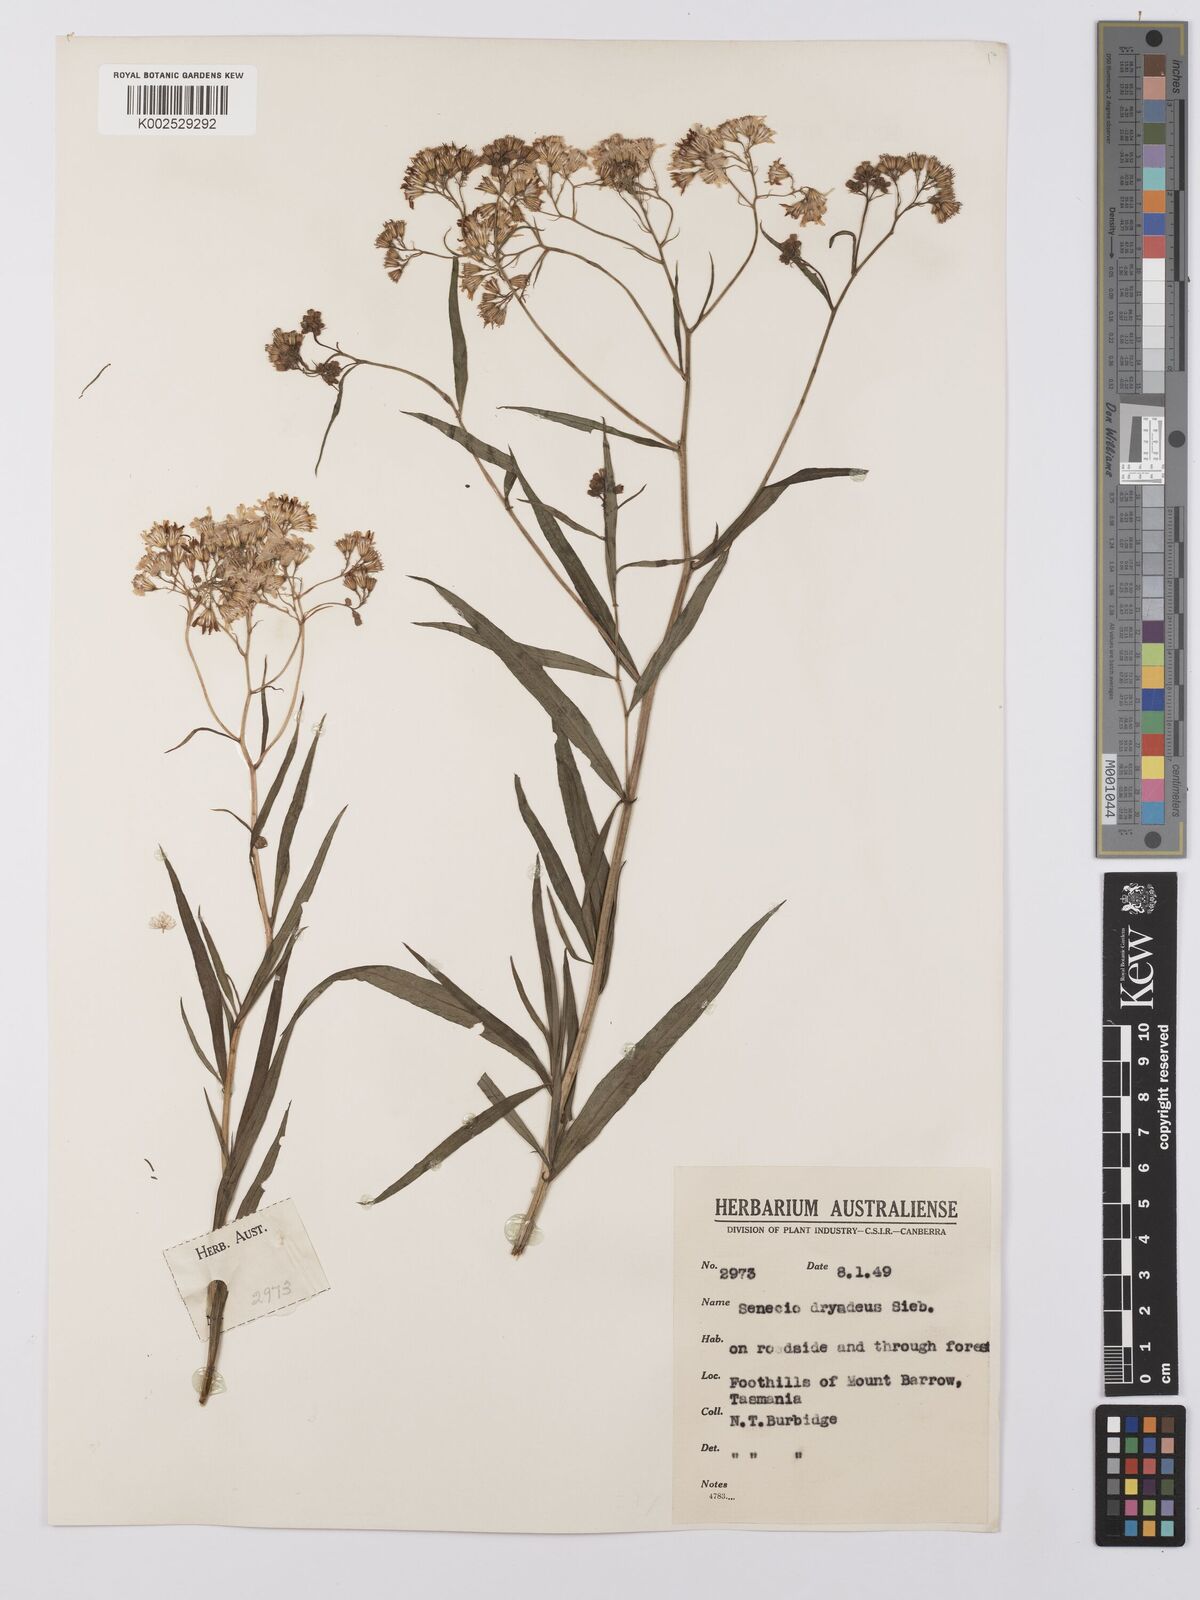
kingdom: Plantae
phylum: Tracheophyta
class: Magnoliopsida
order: Asterales
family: Asteraceae
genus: Senecio
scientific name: Senecio
